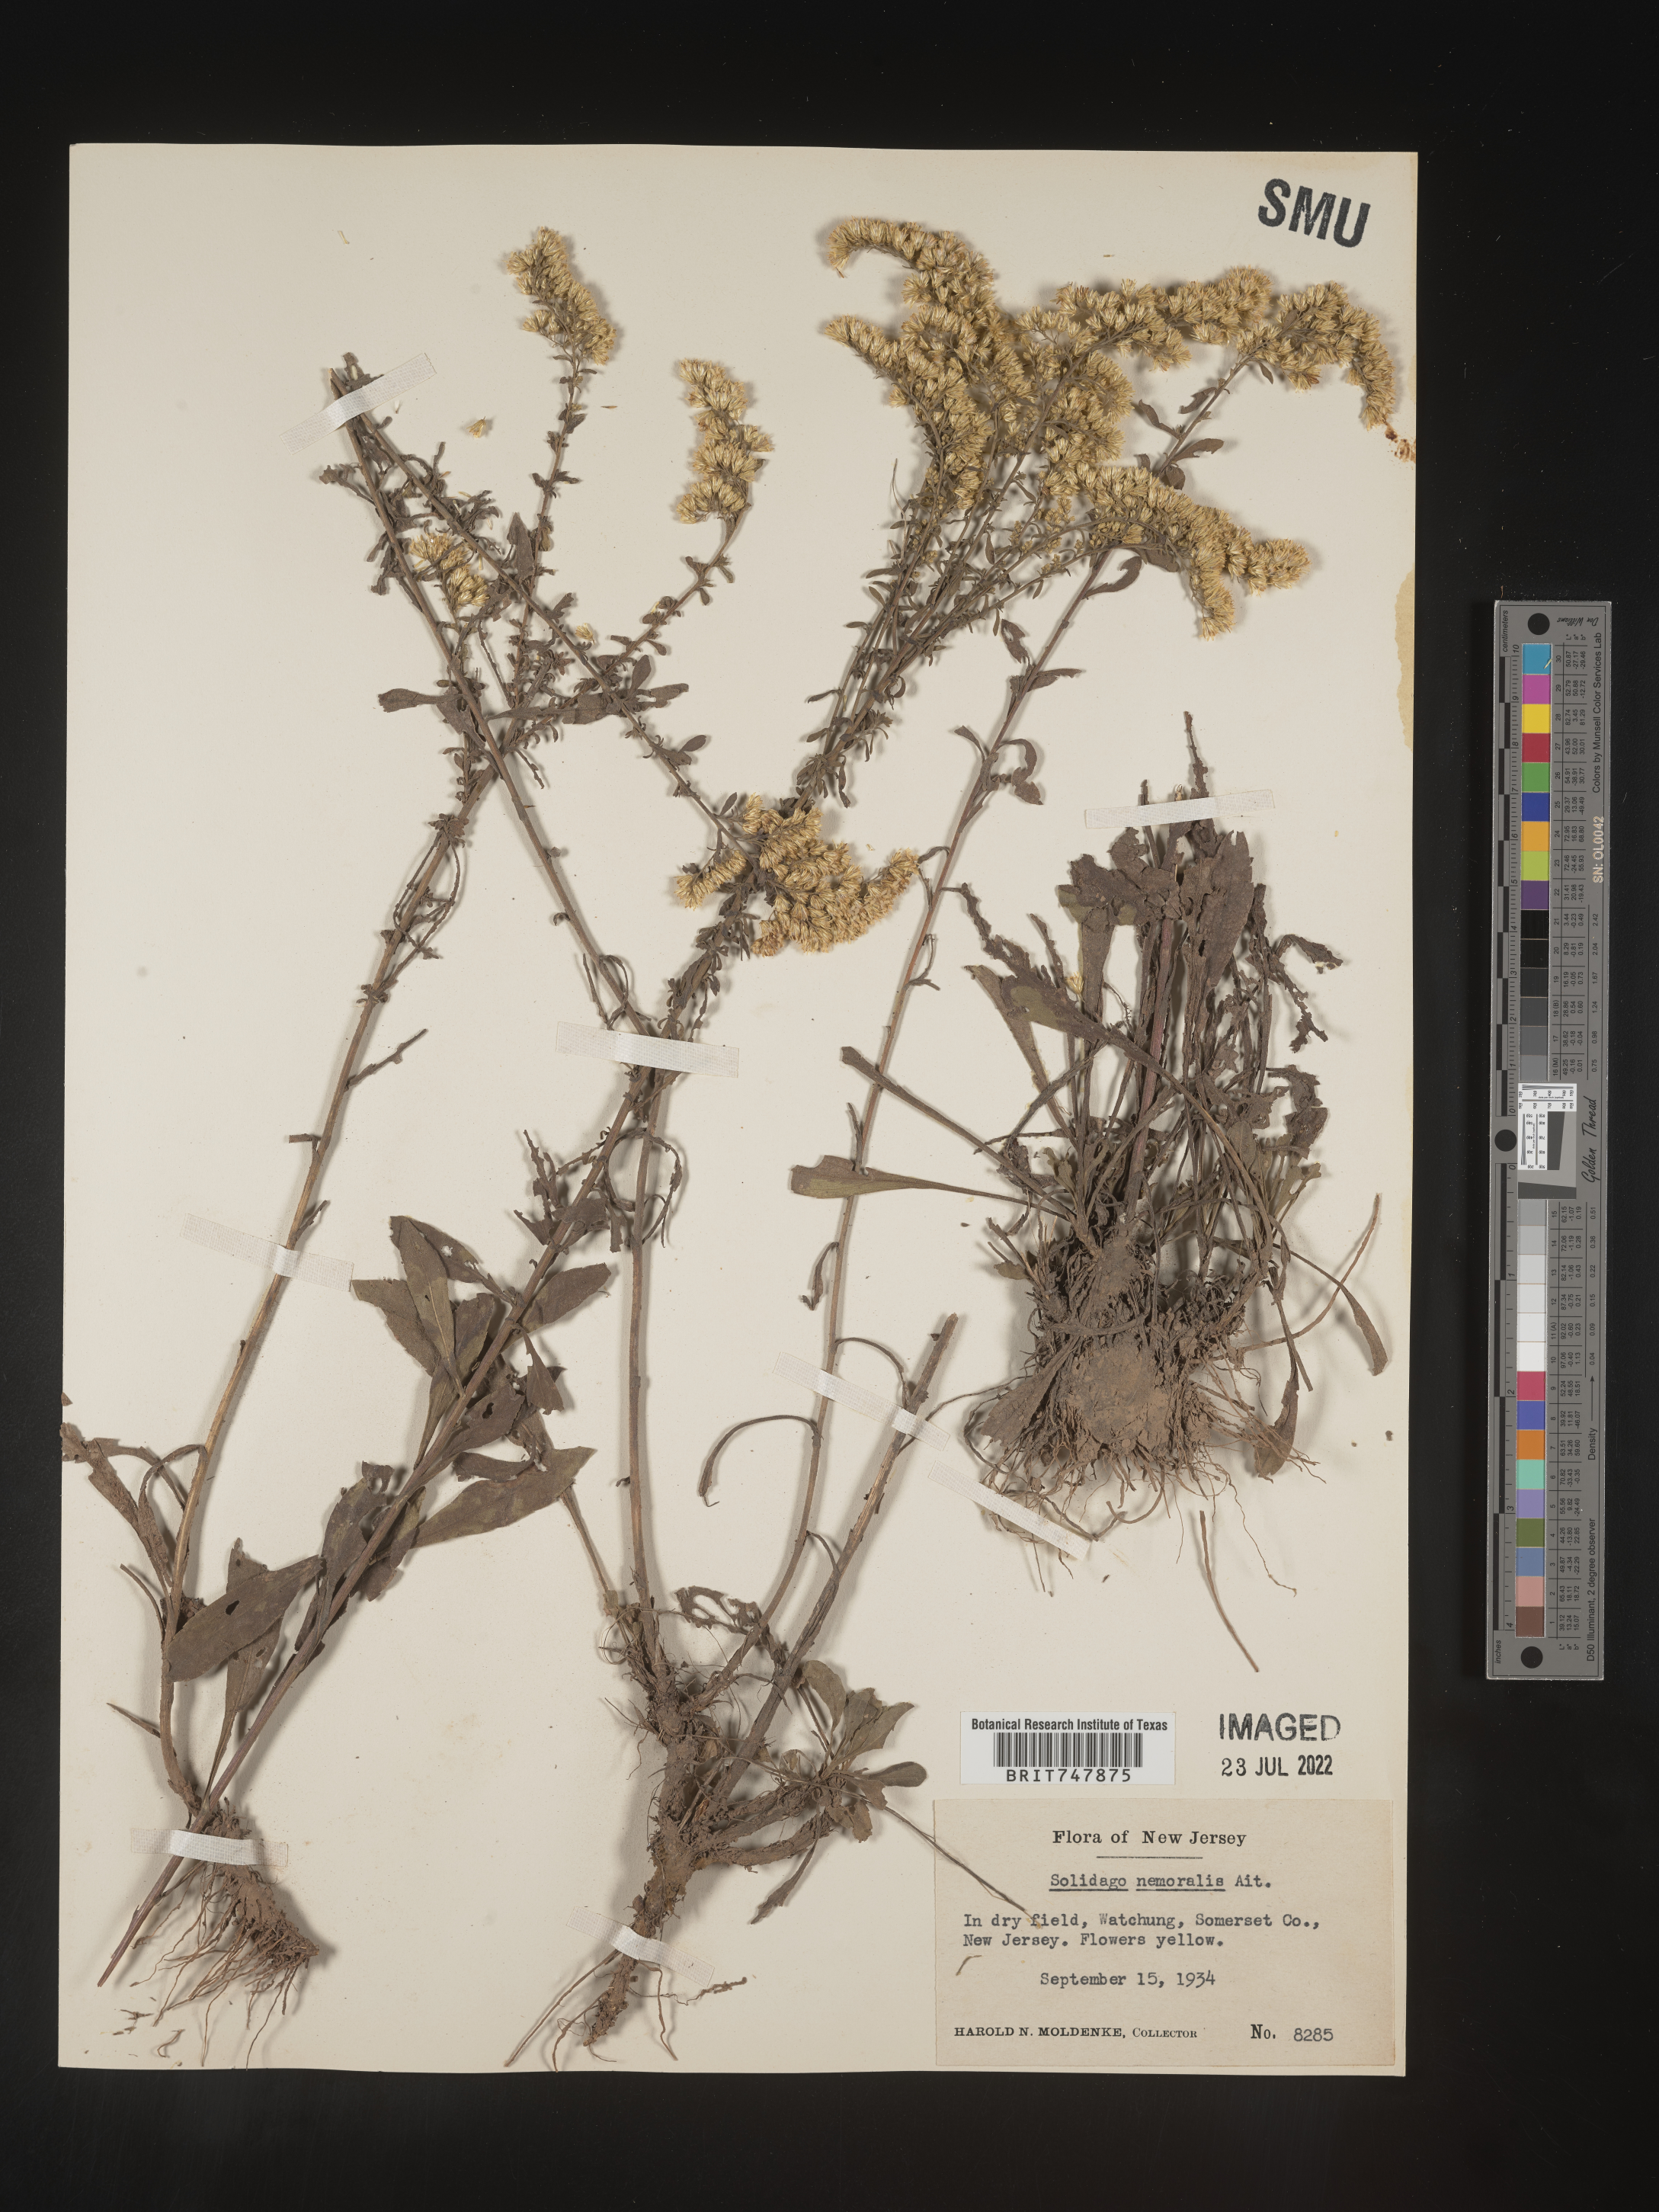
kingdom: Plantae
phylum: Tracheophyta
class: Magnoliopsida
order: Asterales
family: Asteraceae
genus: Solidago
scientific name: Solidago nemoralis
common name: Grey goldenrod
